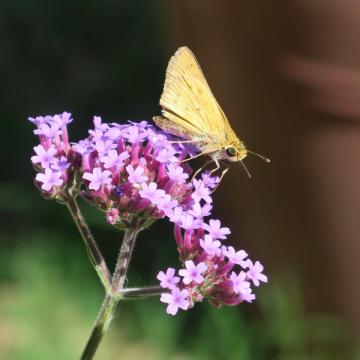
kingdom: Animalia
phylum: Arthropoda
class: Insecta
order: Lepidoptera
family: Hesperiidae
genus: Hylephila
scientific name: Hylephila phyleus
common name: Fiery Skipper
